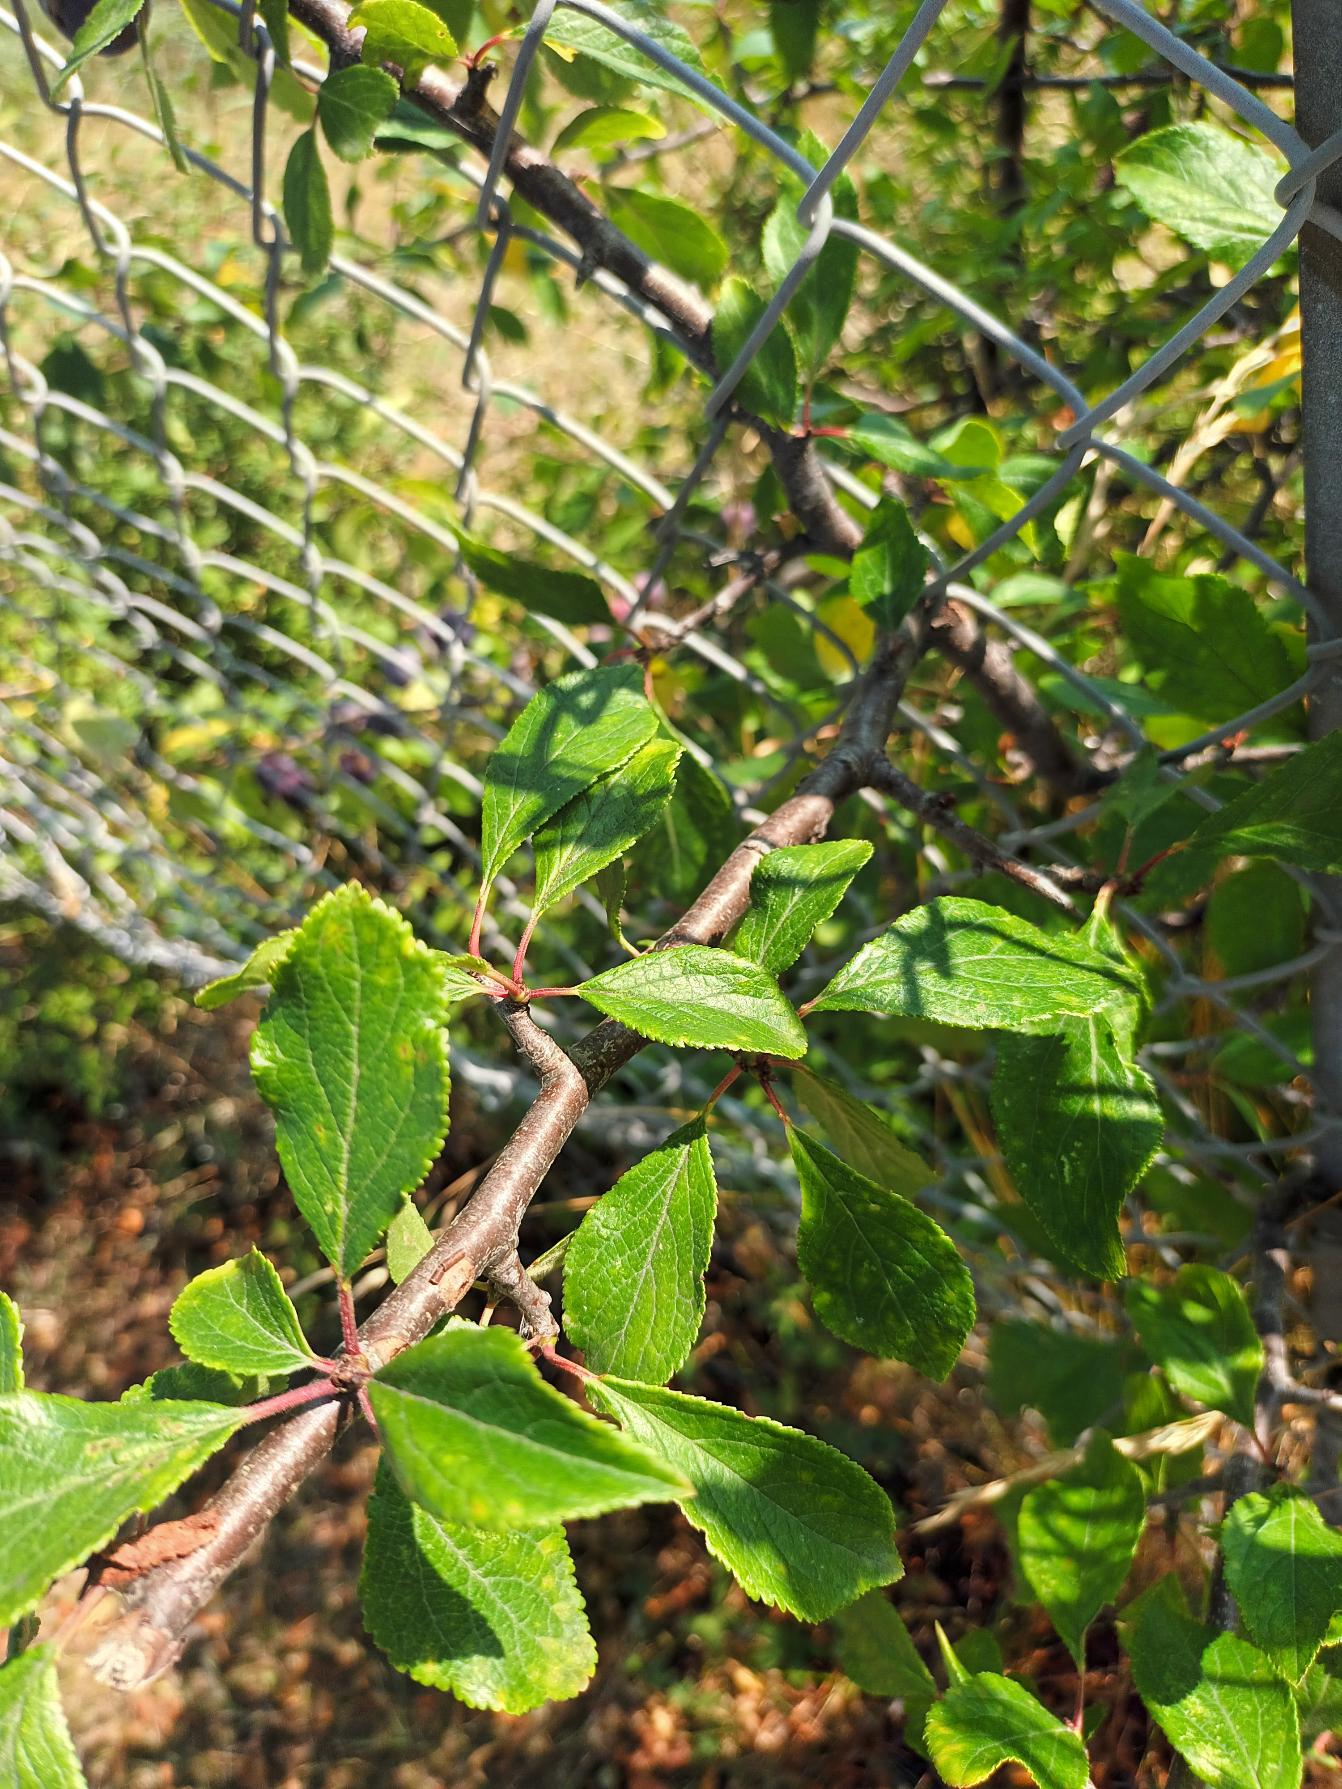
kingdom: Plantae
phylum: Tracheophyta
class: Magnoliopsida
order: Rosales
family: Rosaceae
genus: Prunus
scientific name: Prunus domestica
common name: Blomme
